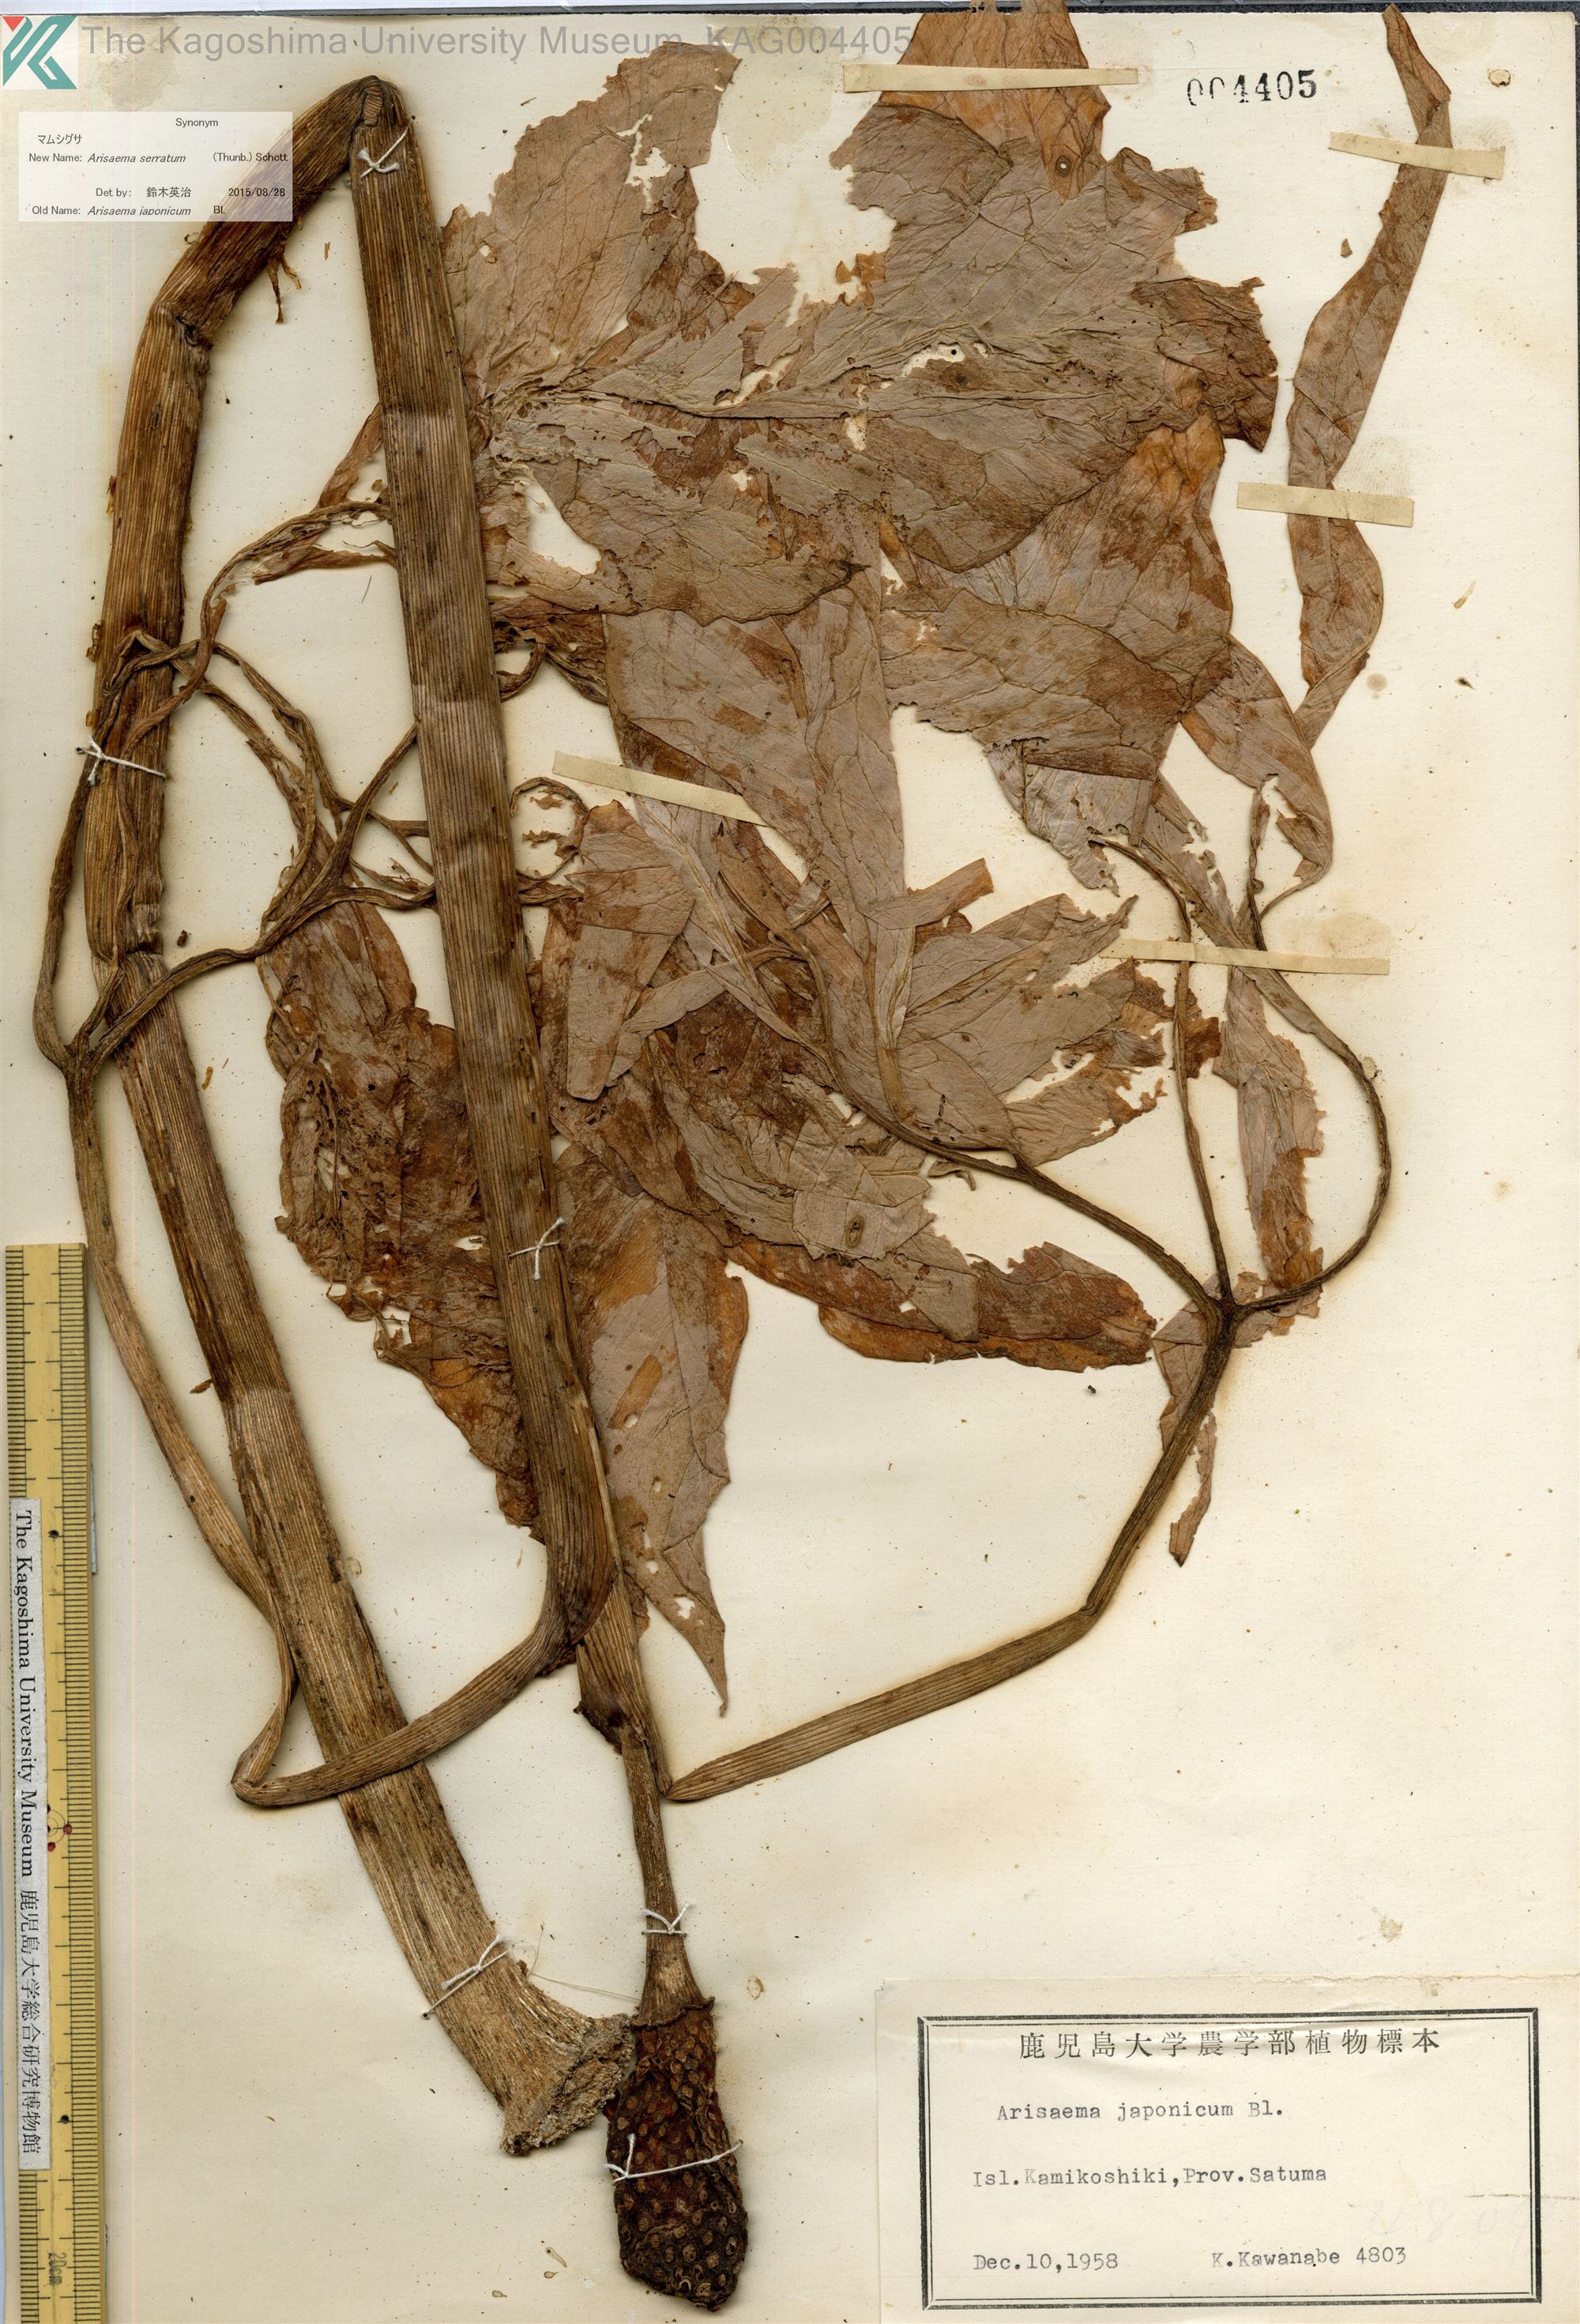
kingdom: Plantae
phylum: Tracheophyta
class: Liliopsida
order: Alismatales
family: Araceae
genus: Arisaema
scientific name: Arisaema serratum
